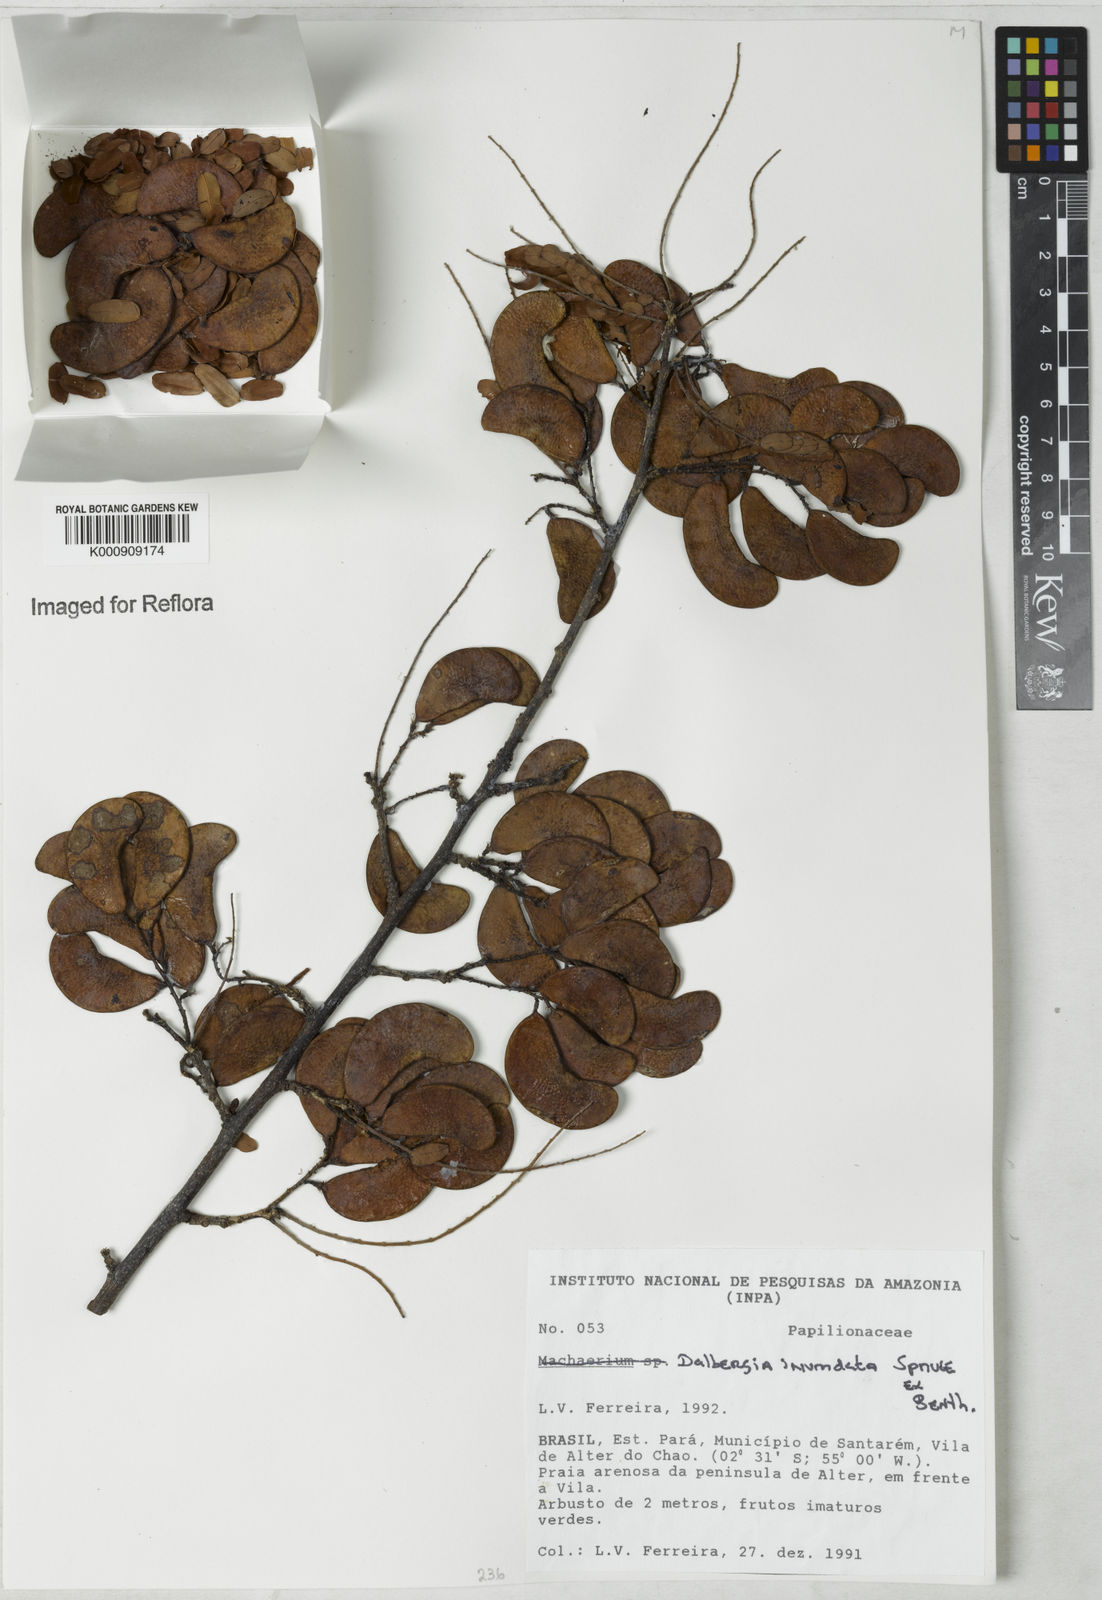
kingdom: Plantae
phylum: Tracheophyta
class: Magnoliopsida
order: Fabales
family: Fabaceae
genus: Dalbergia
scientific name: Dalbergia inundata
